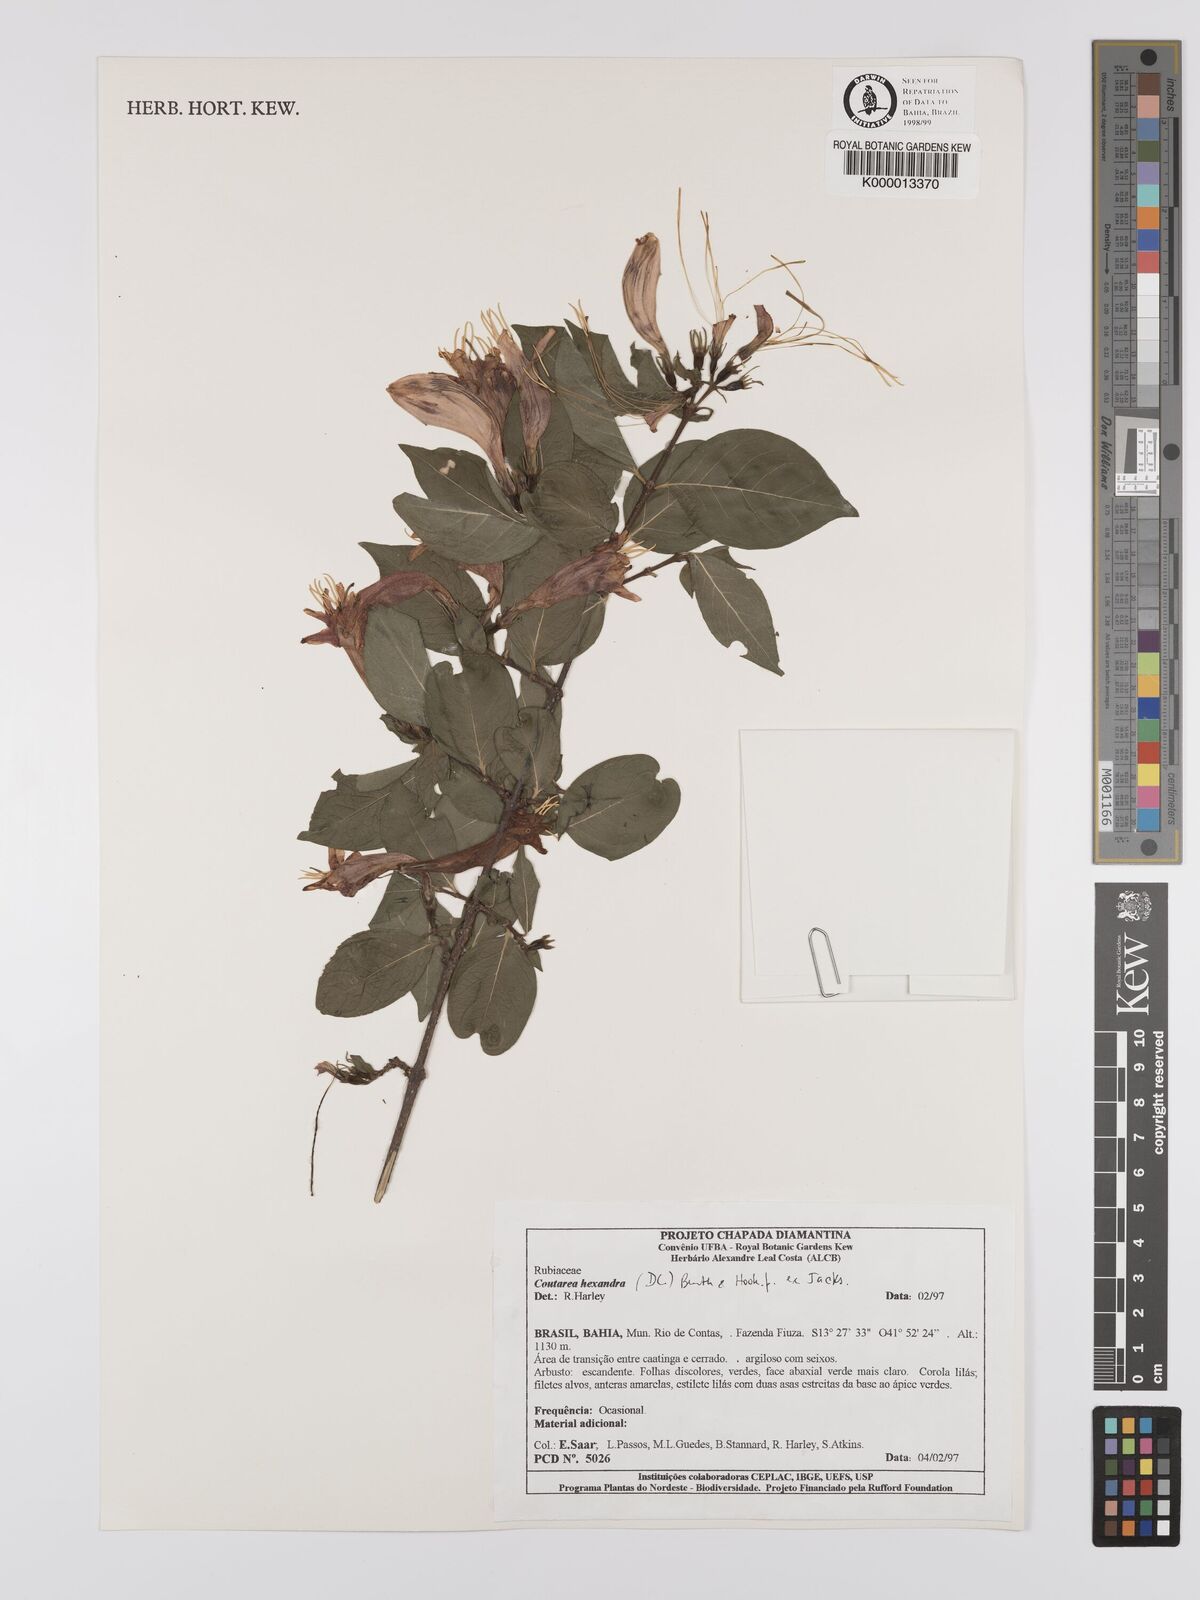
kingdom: Plantae
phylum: Tracheophyta
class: Magnoliopsida
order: Gentianales
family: Rubiaceae
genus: Coutarea
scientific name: Coutarea hexandra
